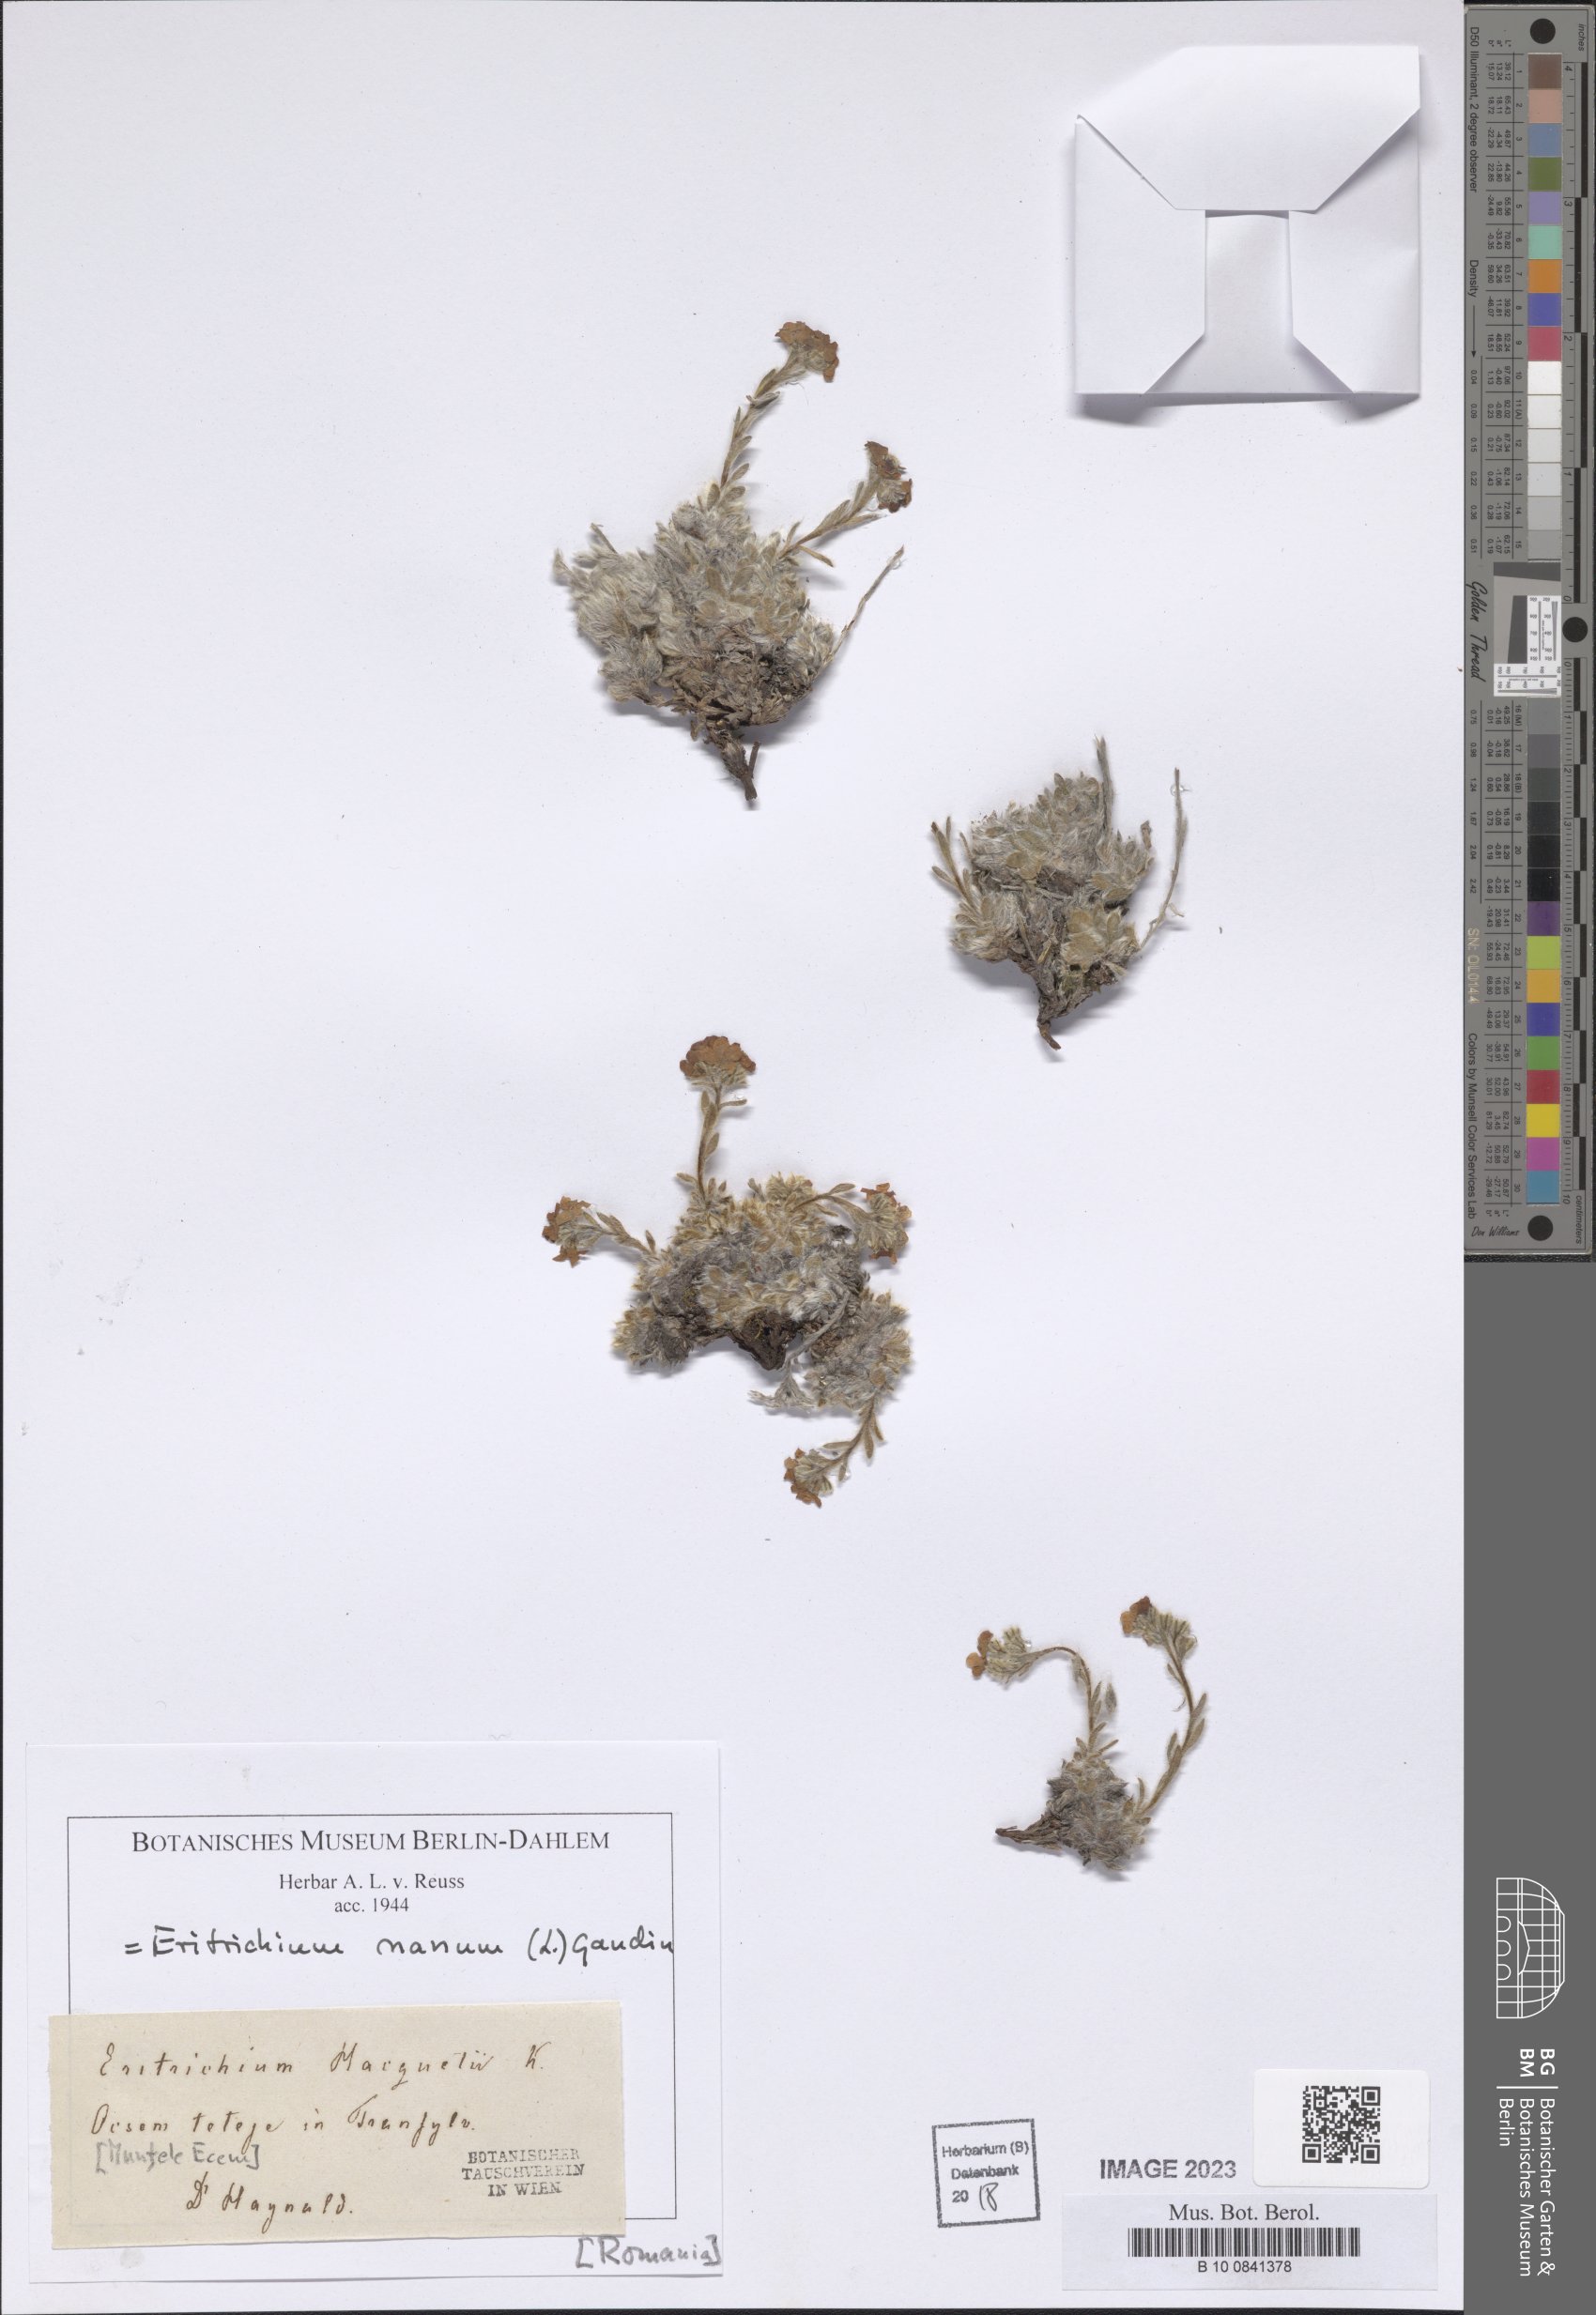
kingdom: Plantae
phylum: Tracheophyta
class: Magnoliopsida
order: Boraginales
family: Boraginaceae
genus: Eritrichium
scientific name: Eritrichium nanum
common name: King-of-the-alps
